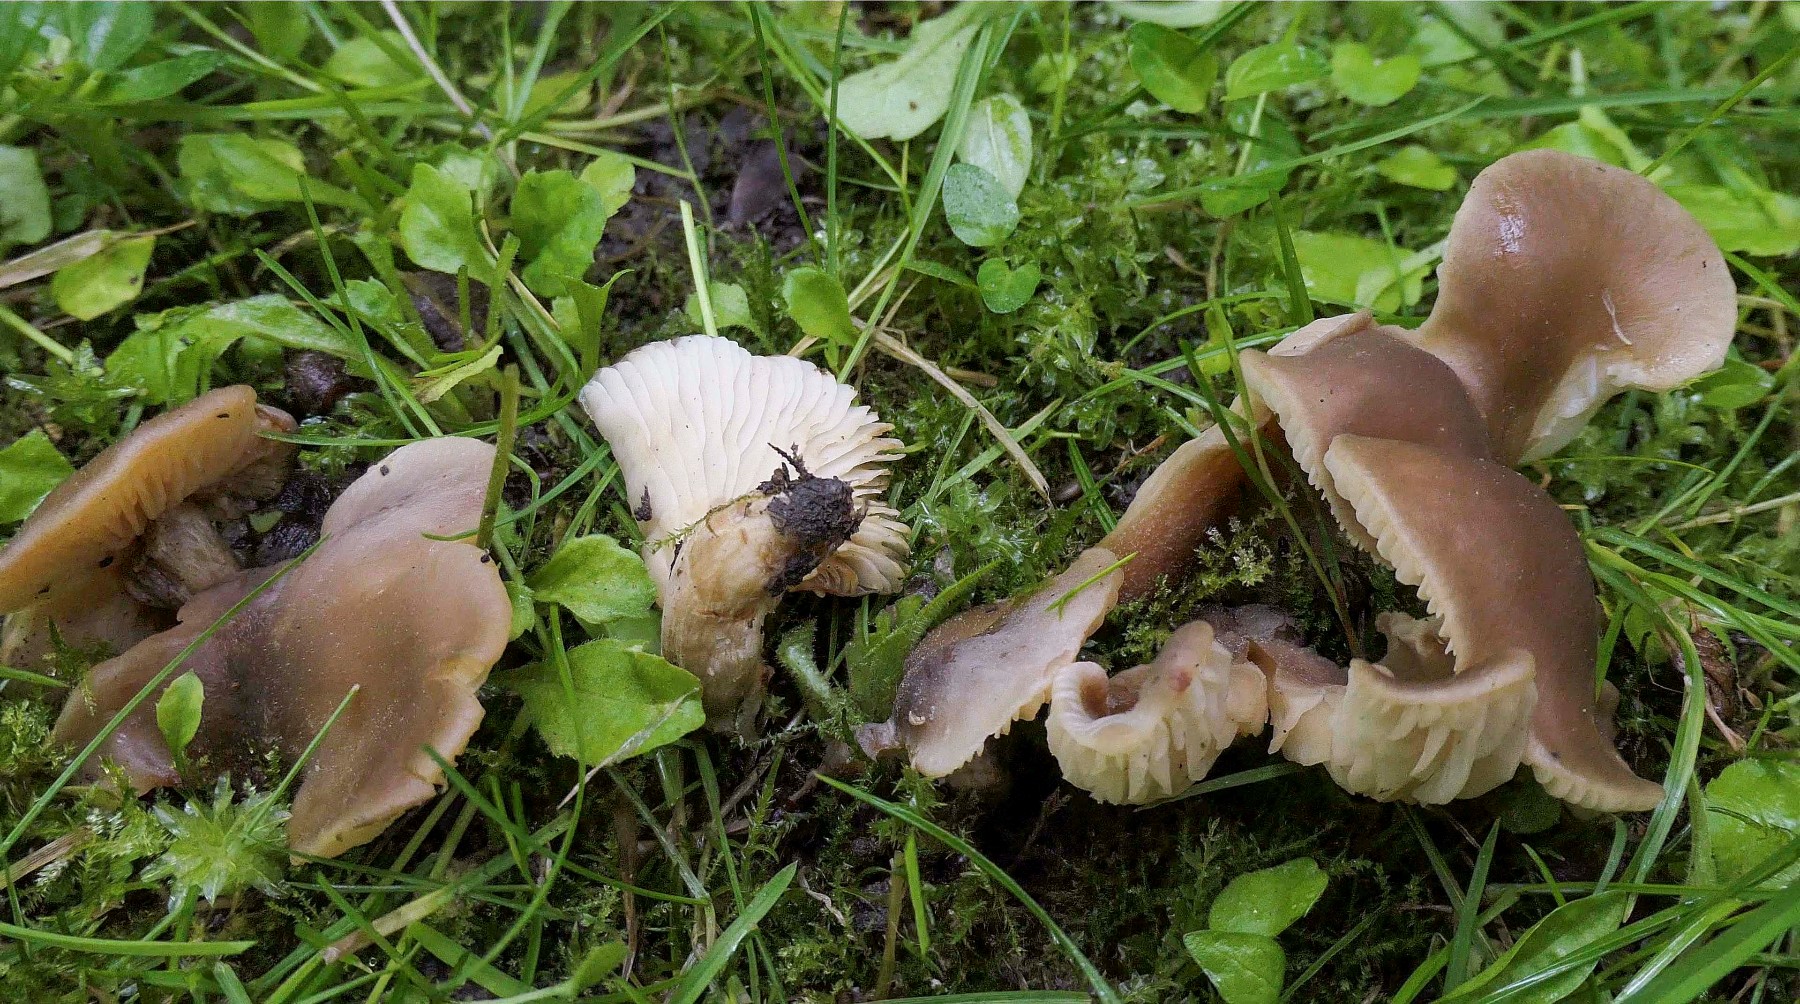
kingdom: Fungi
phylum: Basidiomycota
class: Agaricomycetes
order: Agaricales
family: Pleurotaceae
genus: Hohenbuehelia
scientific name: Hohenbuehelia petaloides
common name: stor filthat
